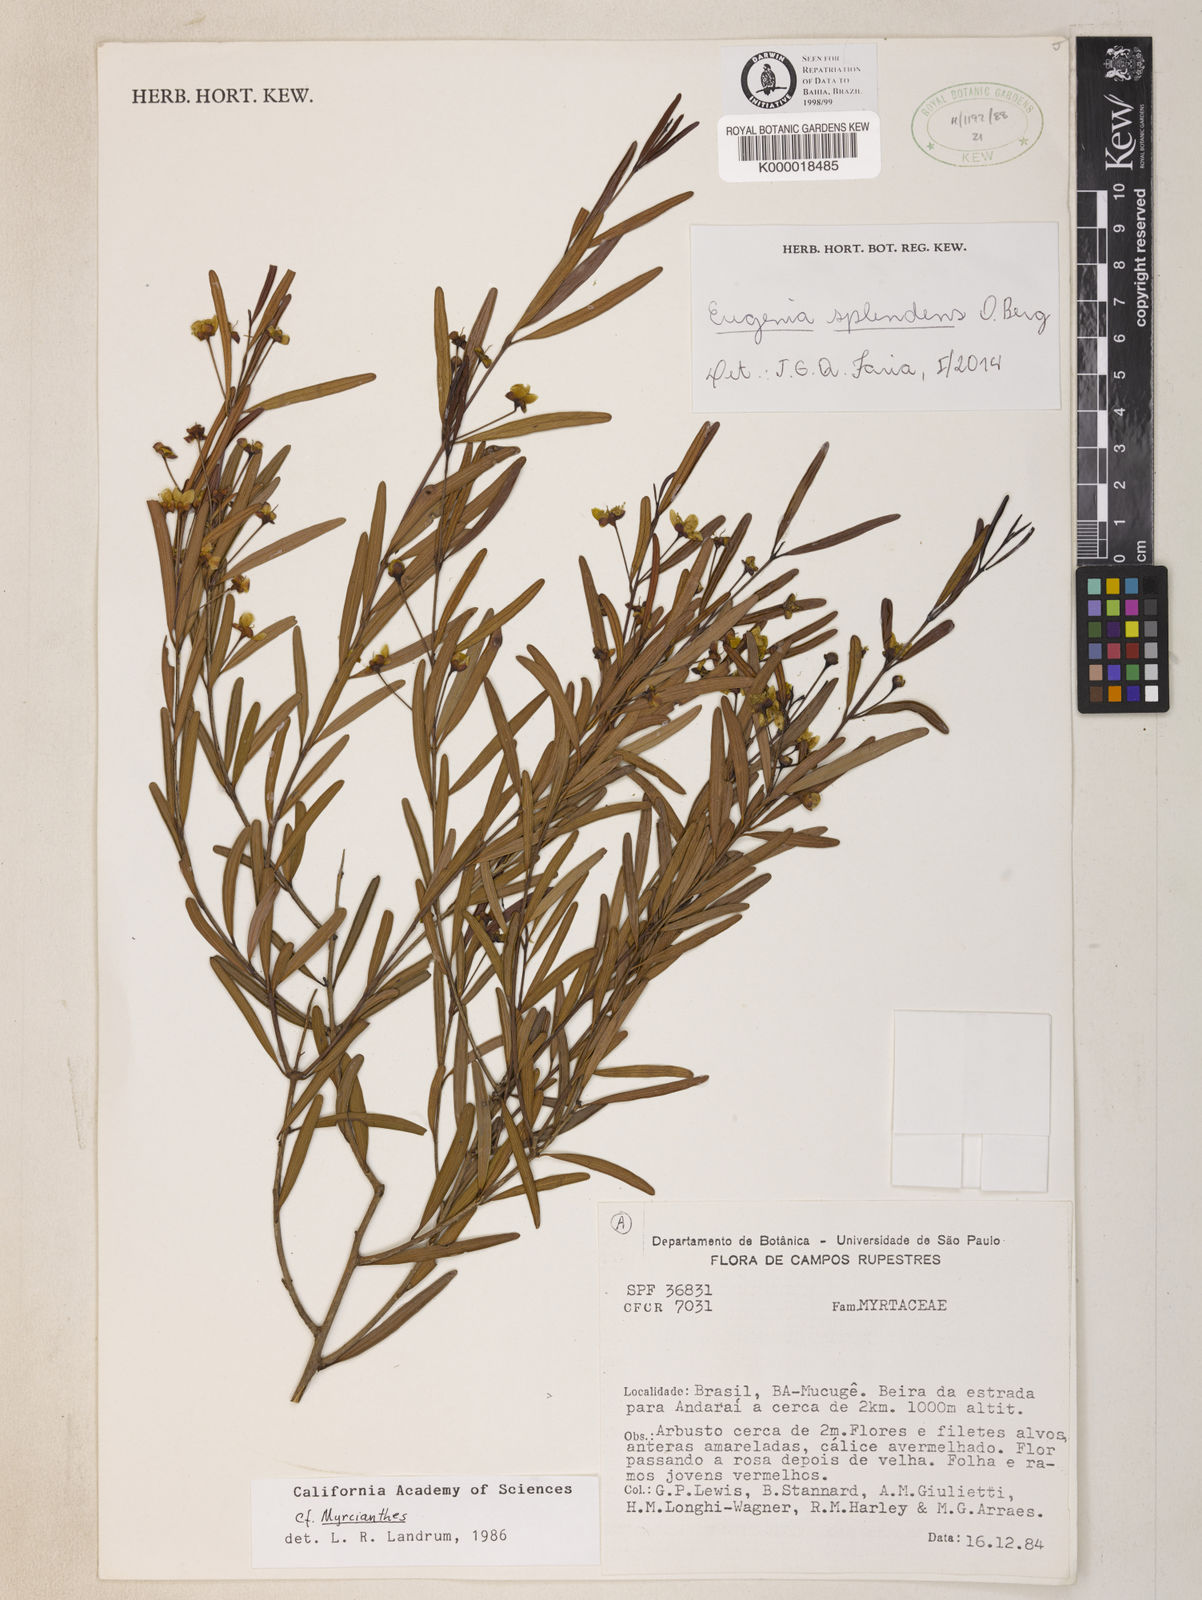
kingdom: Plantae
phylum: Tracheophyta
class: Magnoliopsida
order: Myrtales
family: Myrtaceae
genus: Eugenia
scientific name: Eugenia splendens
